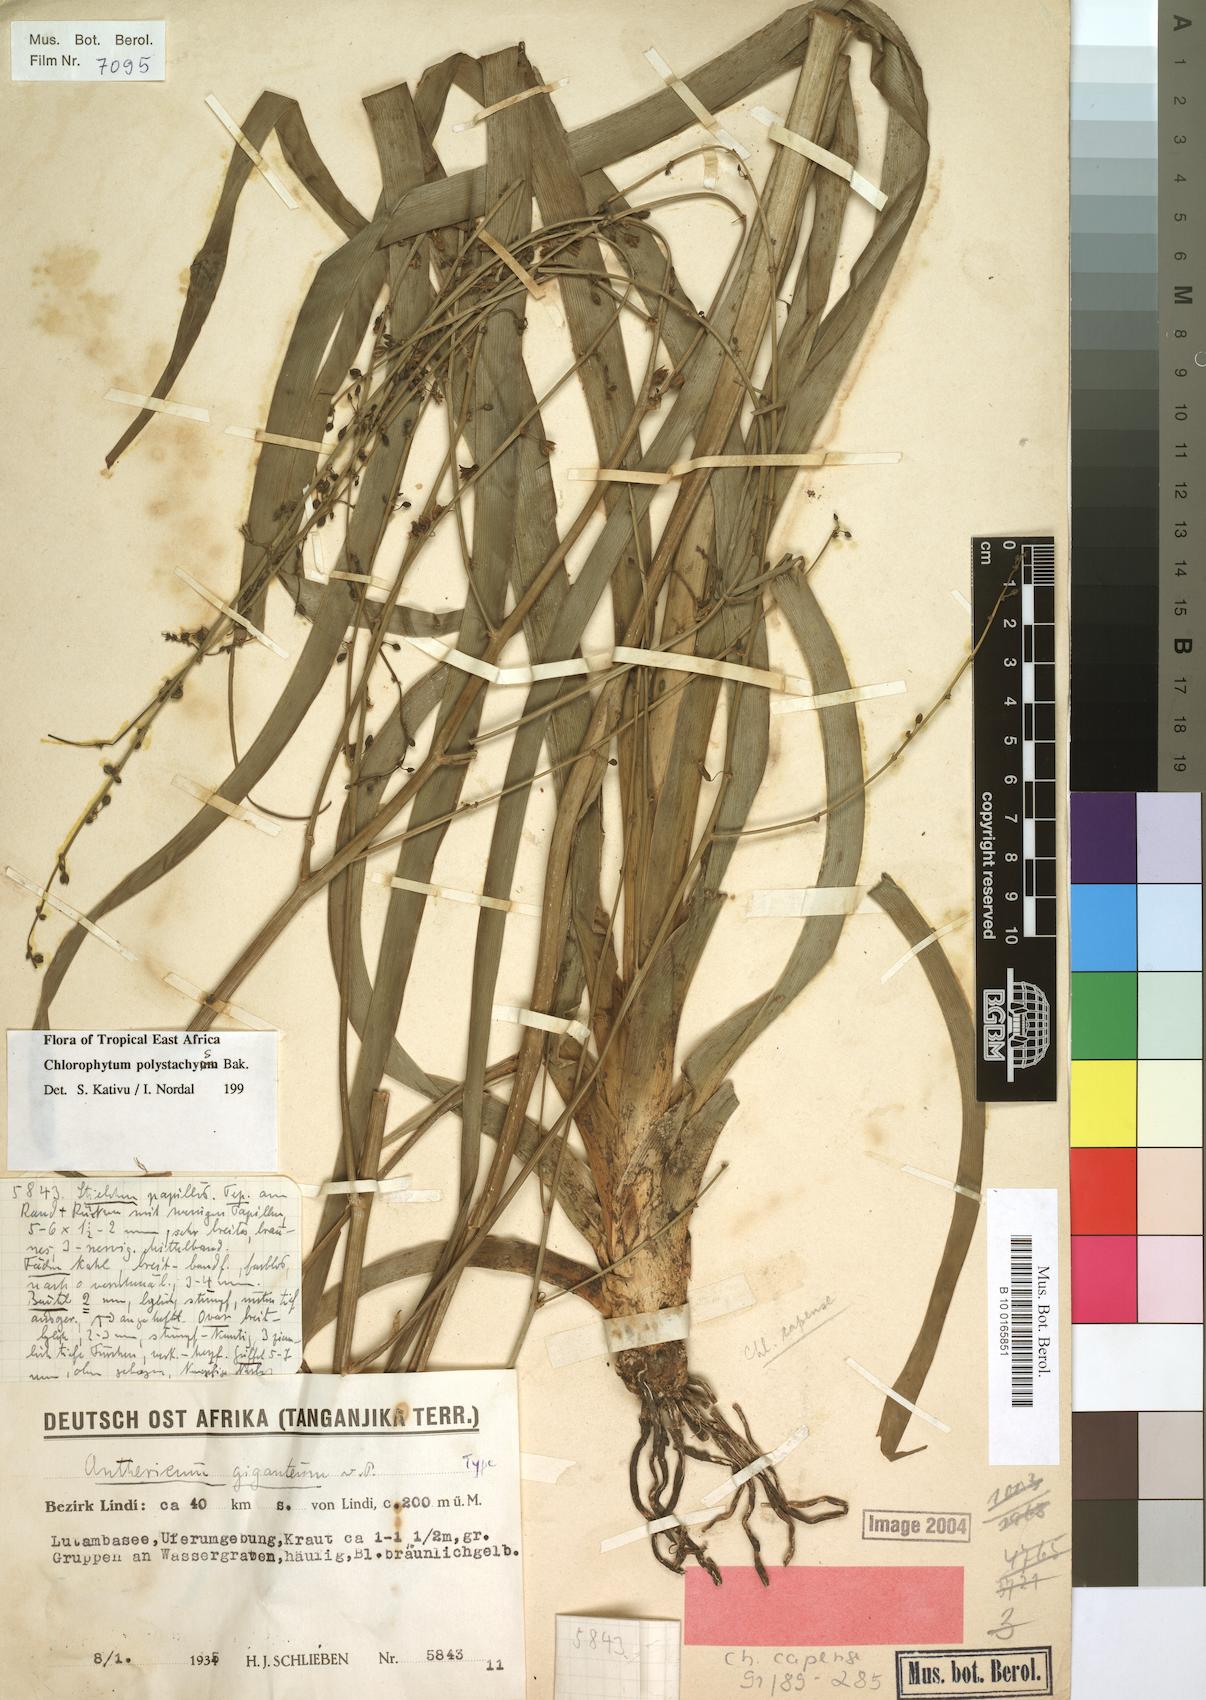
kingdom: Plantae
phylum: Tracheophyta
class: Liliopsida
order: Asparagales
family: Asparagaceae
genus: Chlorophytum
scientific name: Chlorophytum polystachys
